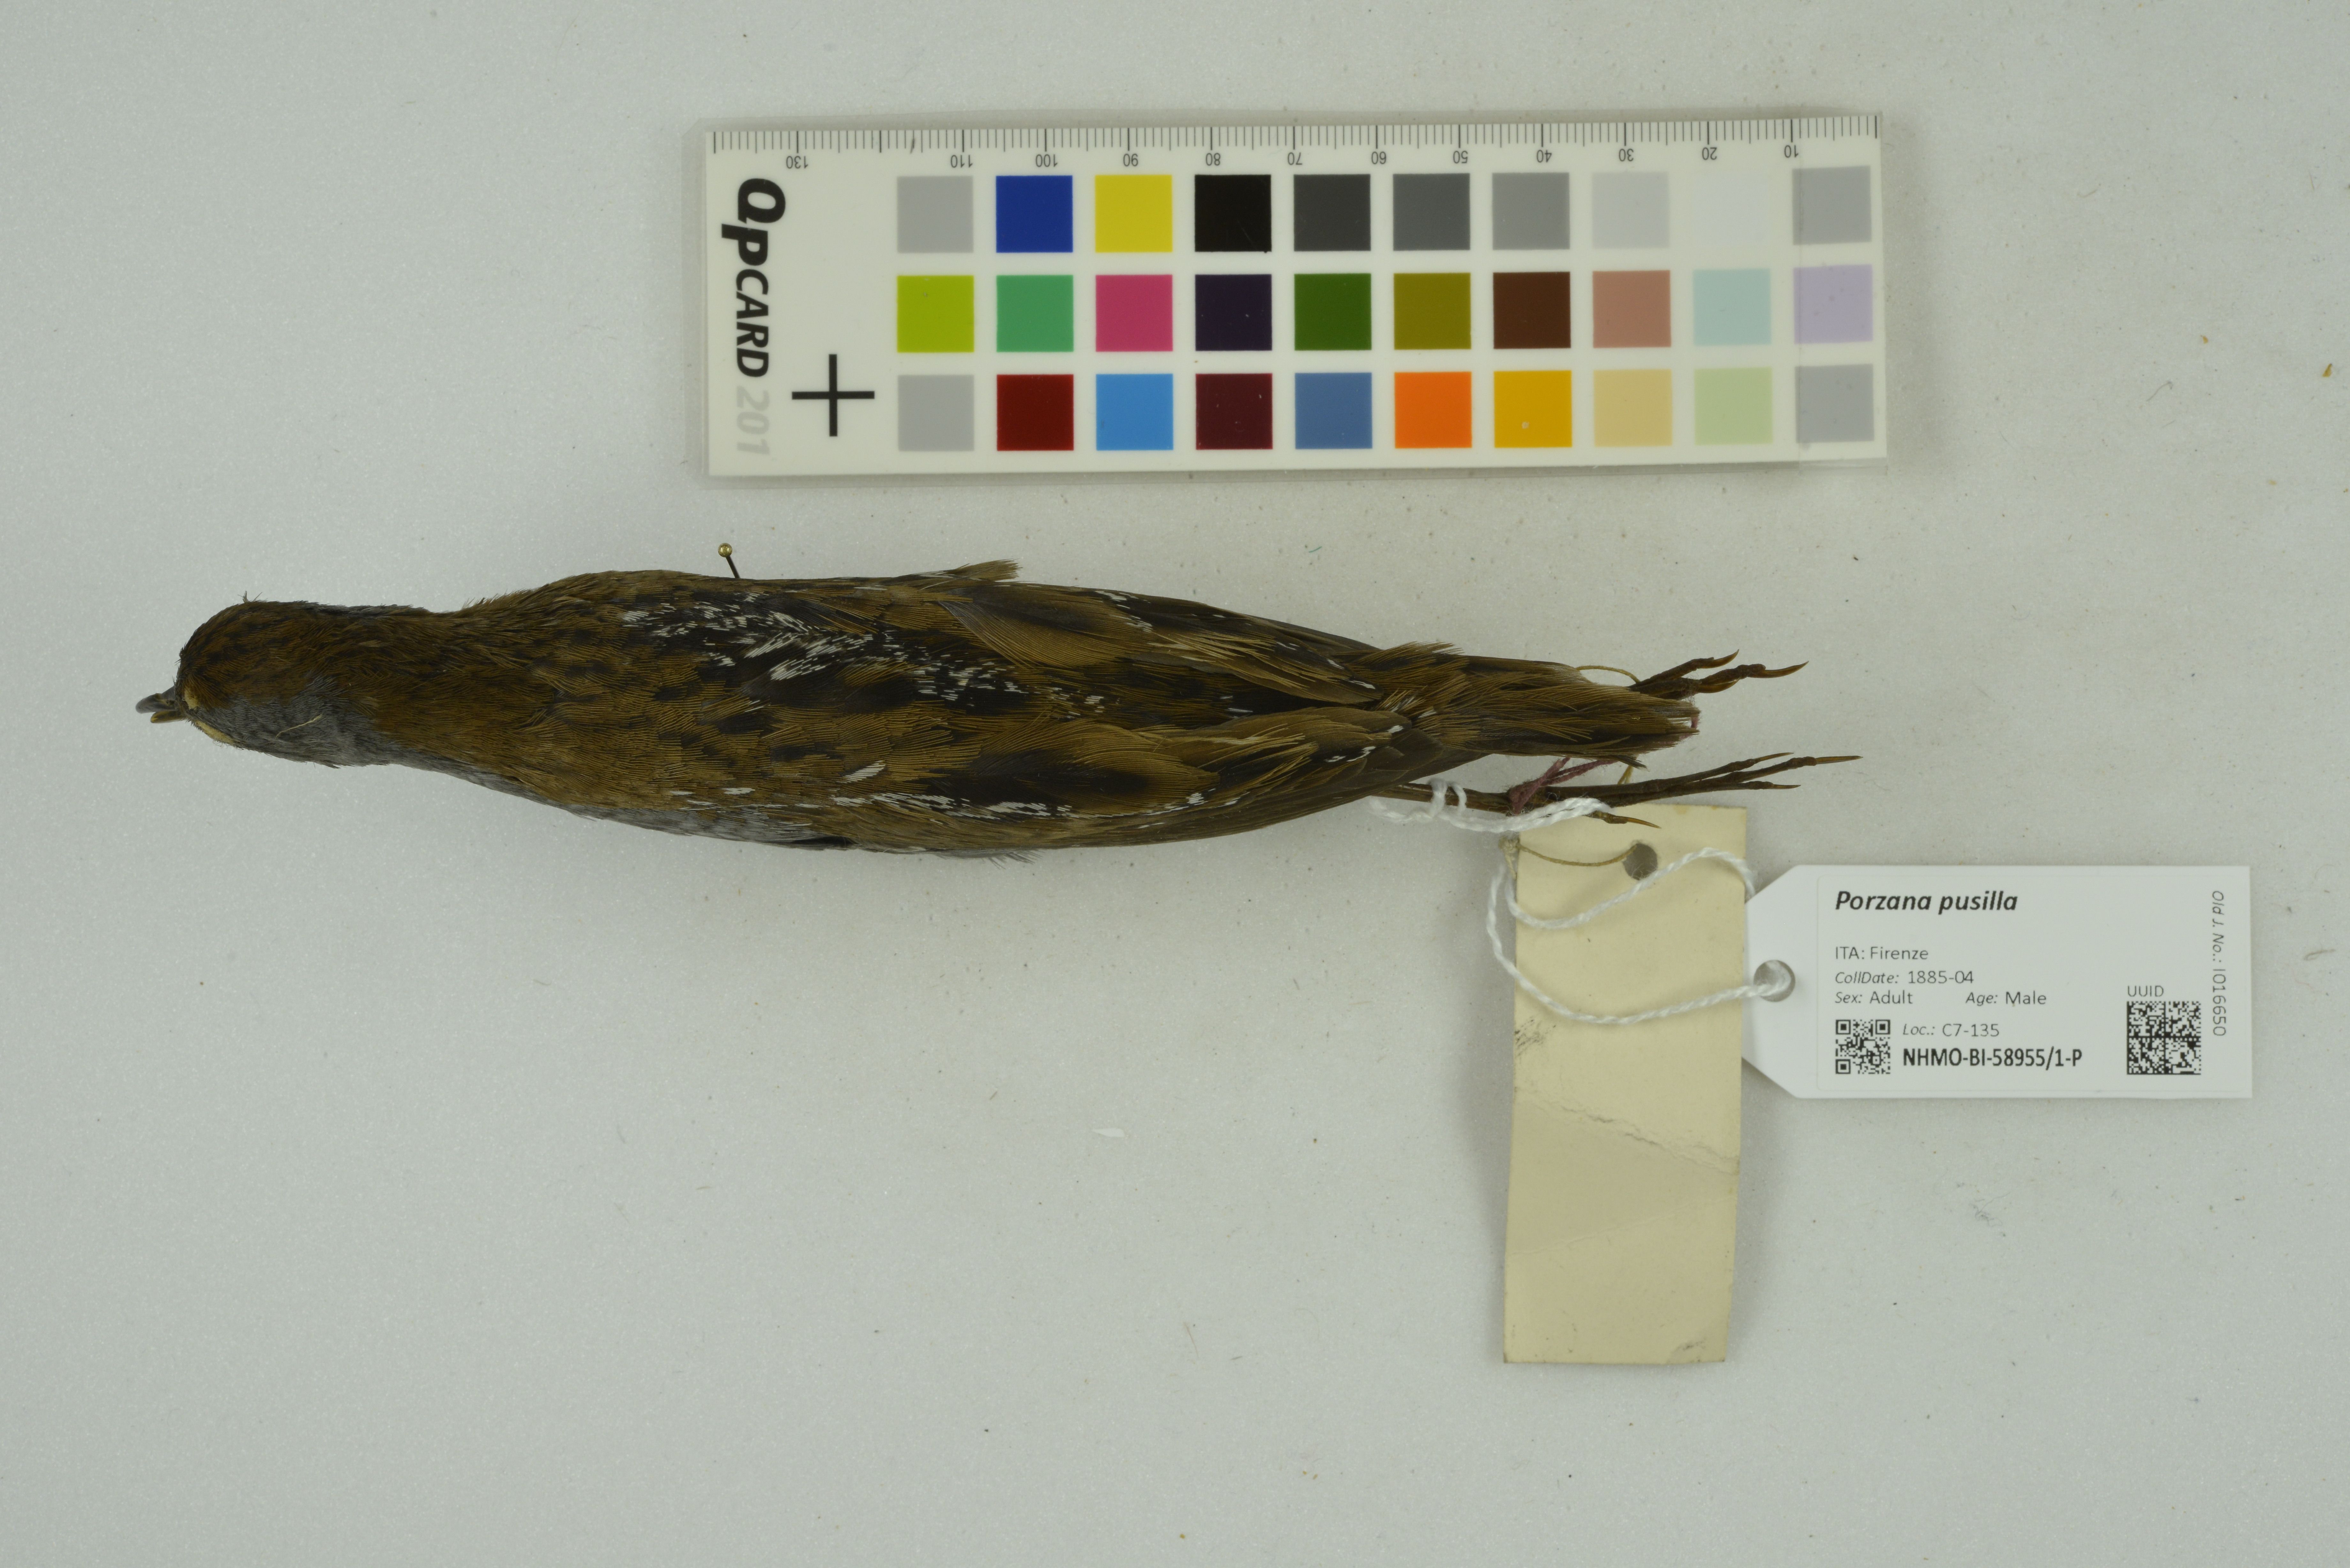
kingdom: Animalia
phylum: Chordata
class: Aves
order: Gruiformes
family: Rallidae
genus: Porzana
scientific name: Porzana pusilla
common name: Baillon's crake
